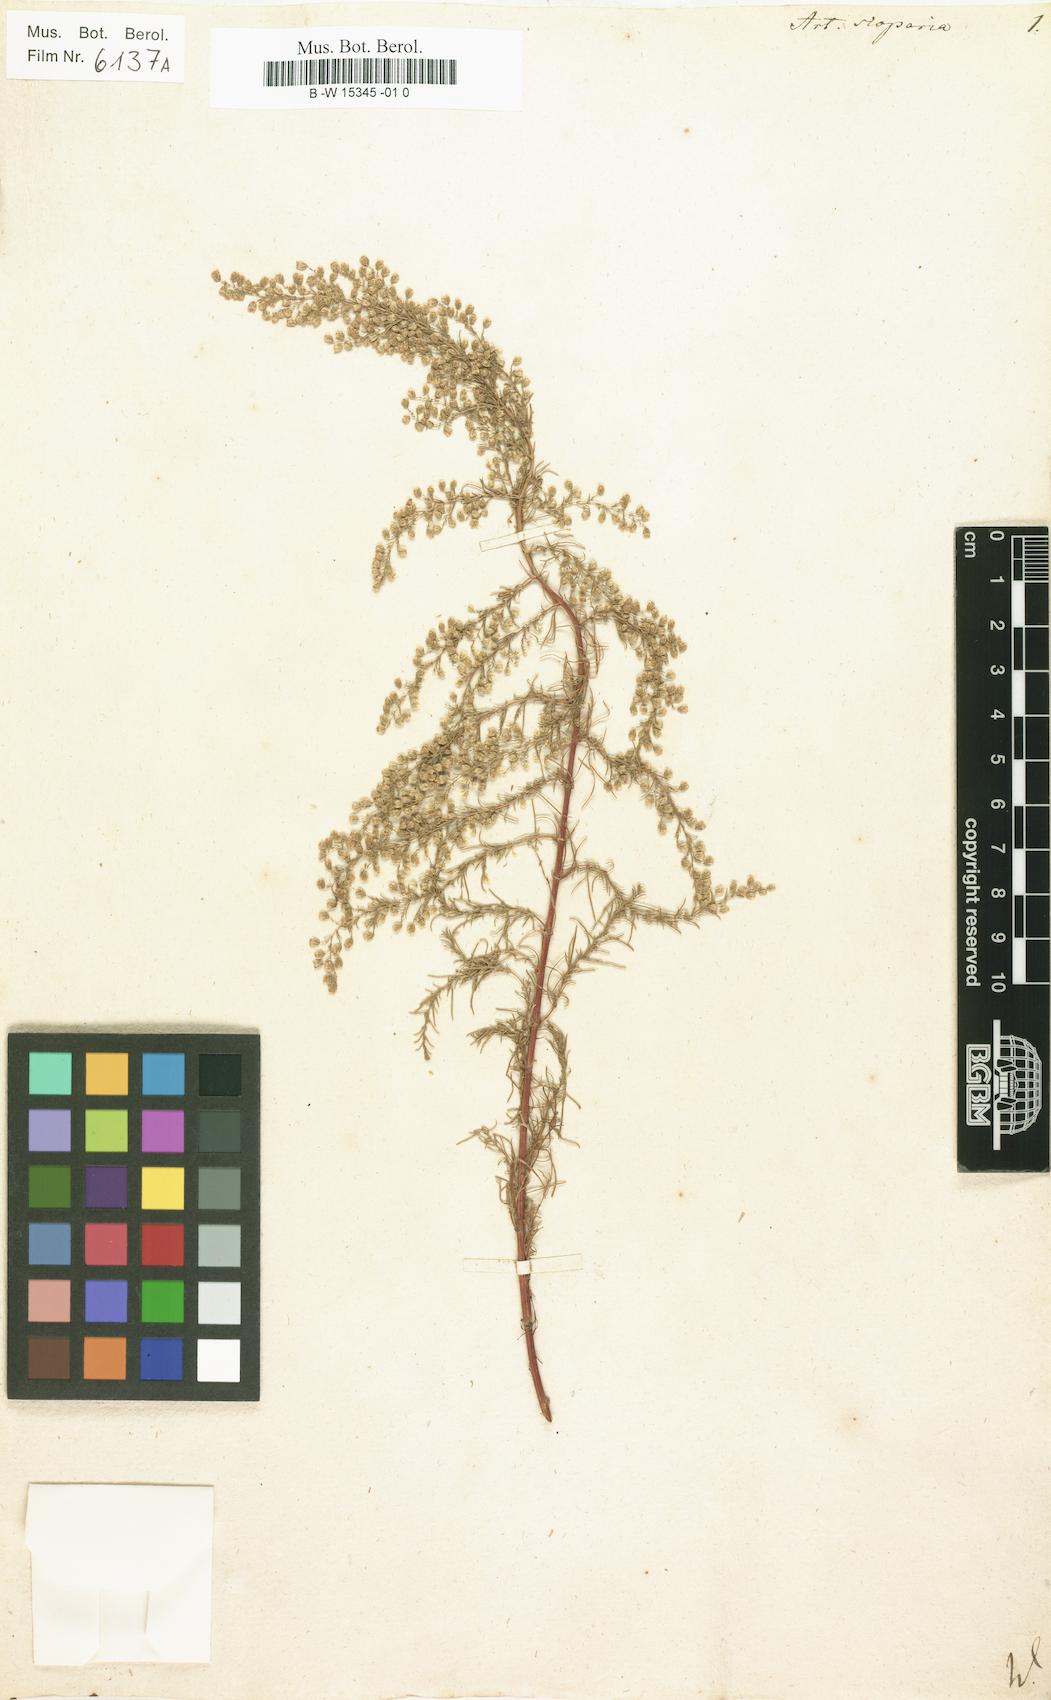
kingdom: Plantae
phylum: Tracheophyta
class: Magnoliopsida
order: Asterales
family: Asteraceae
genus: Artemisia
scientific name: Artemisia scoparia
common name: Redstem wormwood
